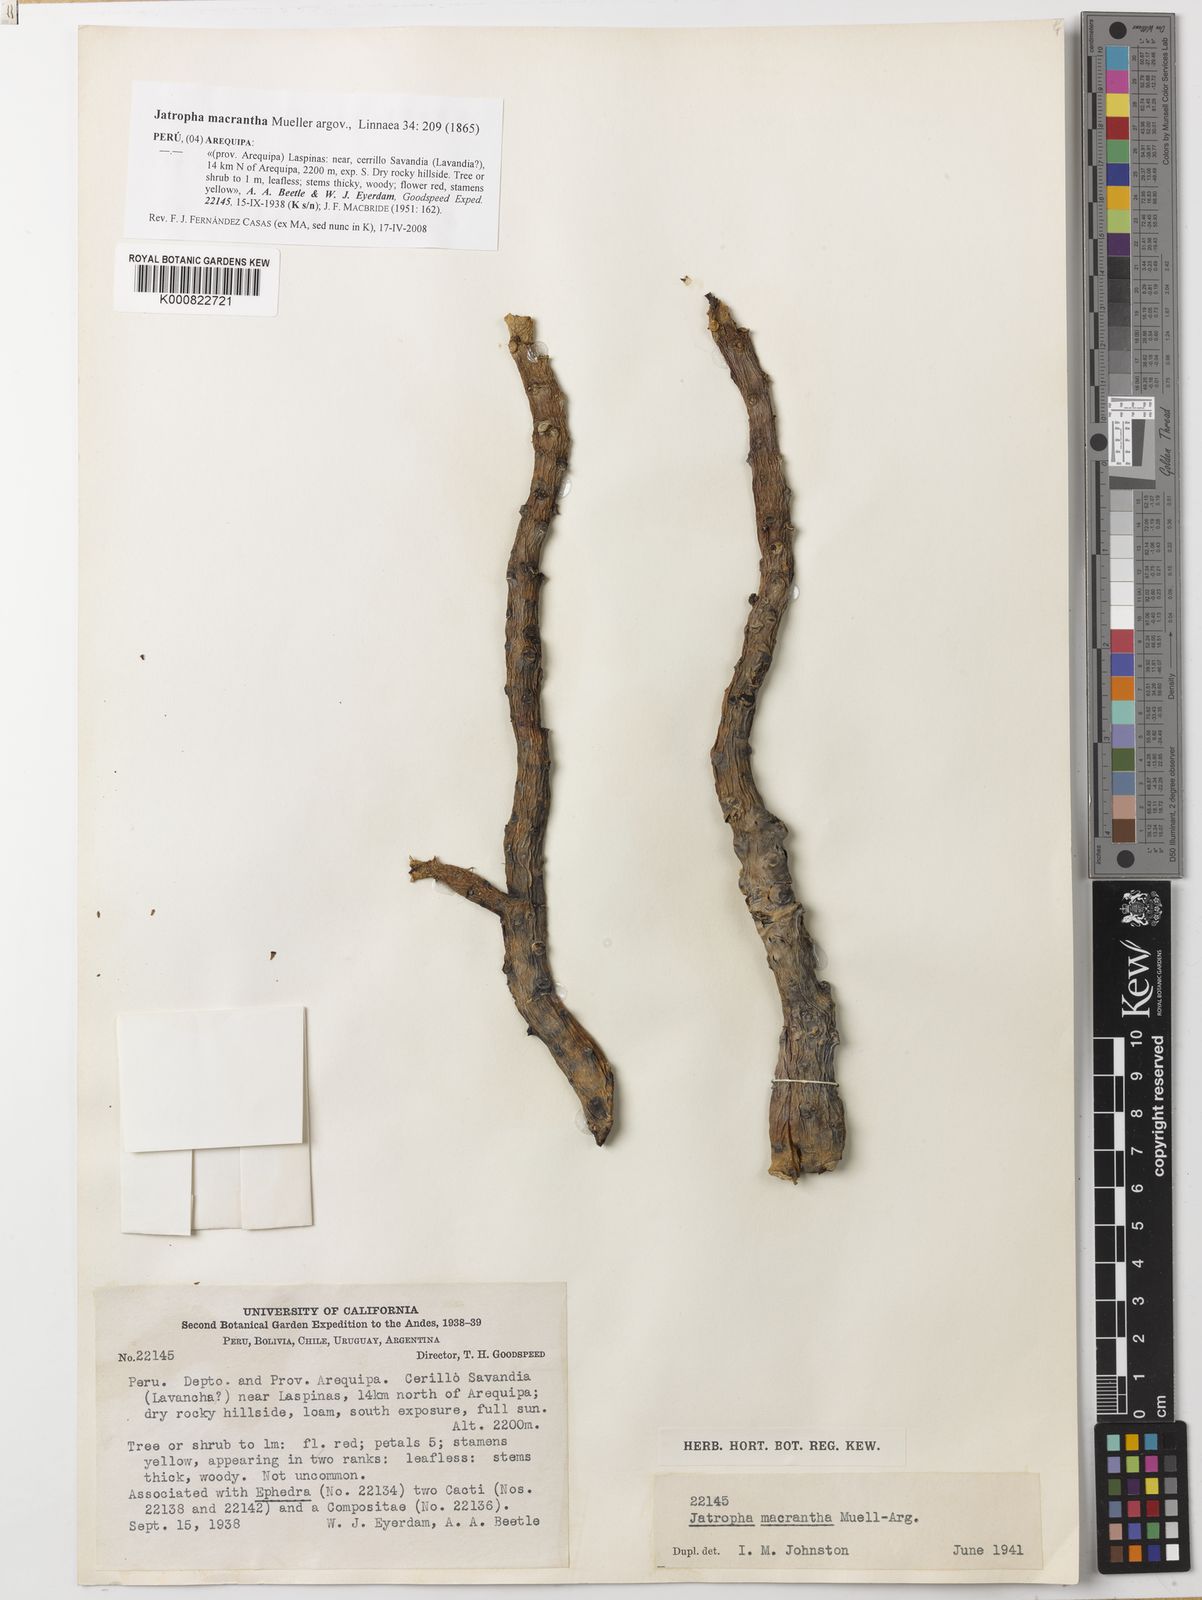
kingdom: Plantae
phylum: Tracheophyta
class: Magnoliopsida
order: Malpighiales
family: Euphorbiaceae
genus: Jatropha
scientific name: Jatropha
